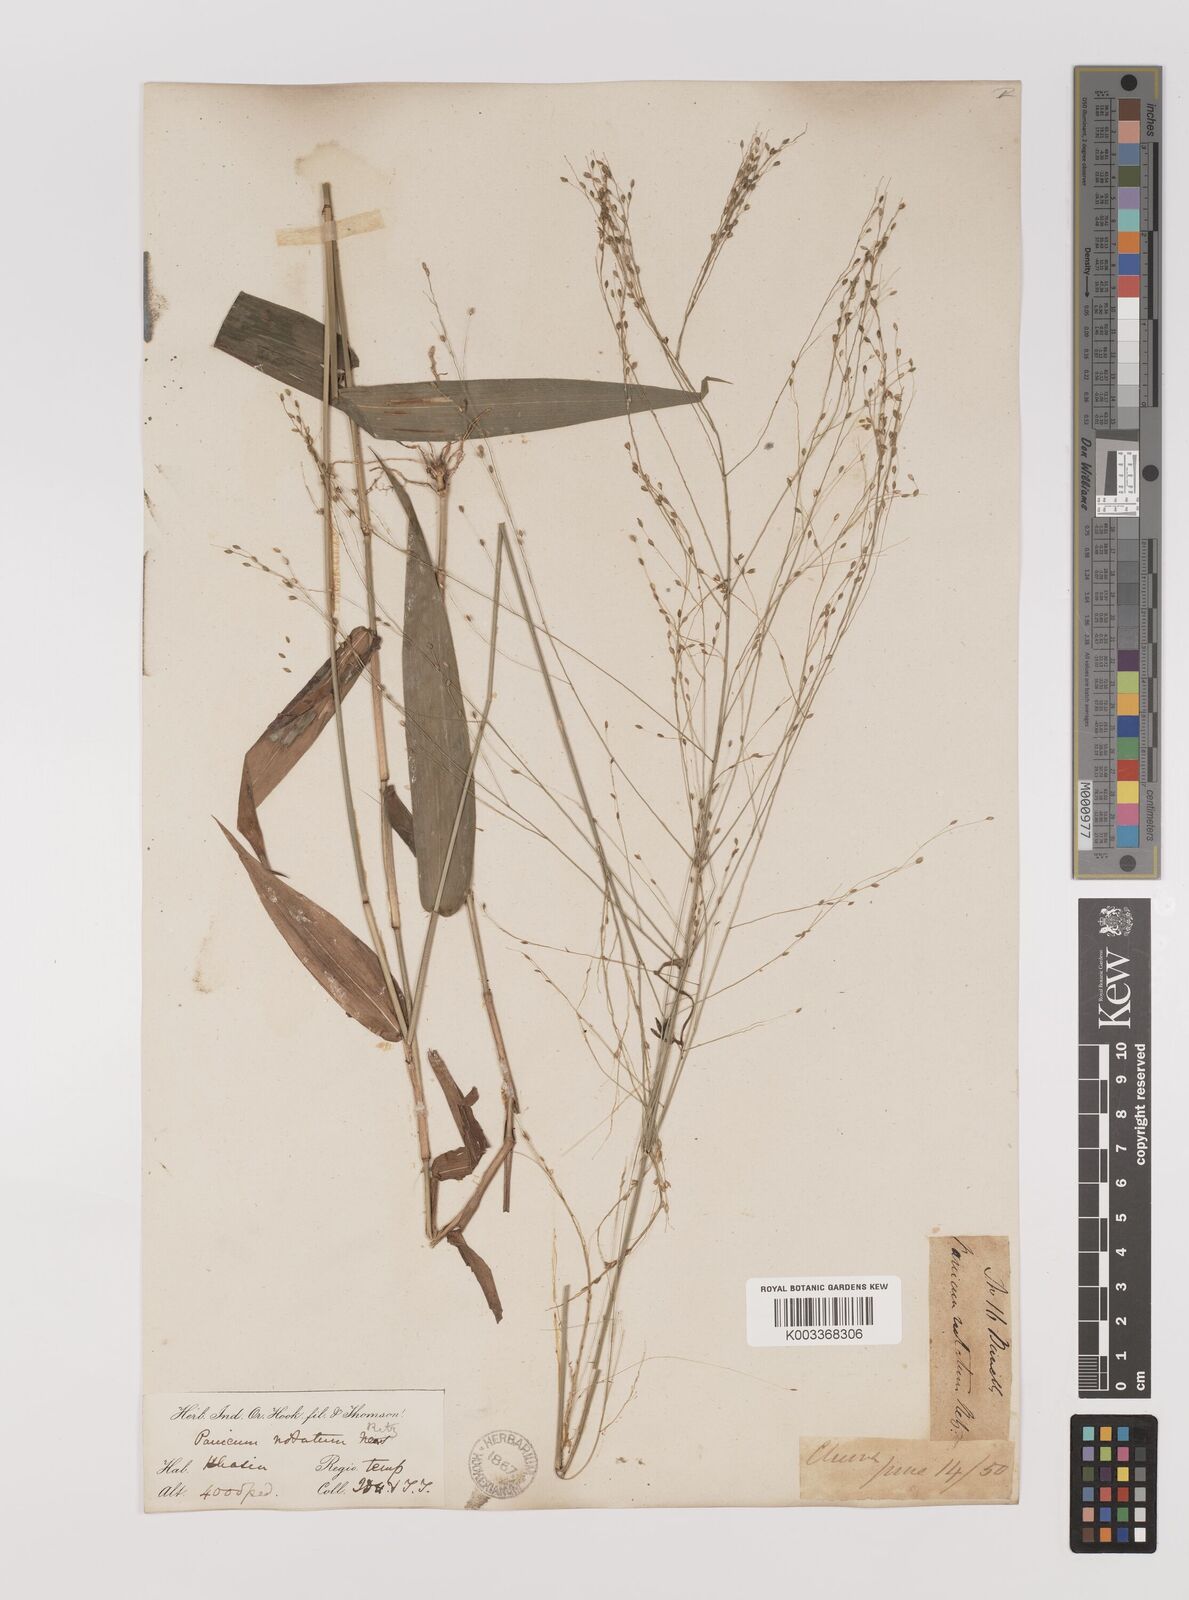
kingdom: Plantae
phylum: Tracheophyta
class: Liliopsida
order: Poales
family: Poaceae
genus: Panicum
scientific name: Panicum notatum
